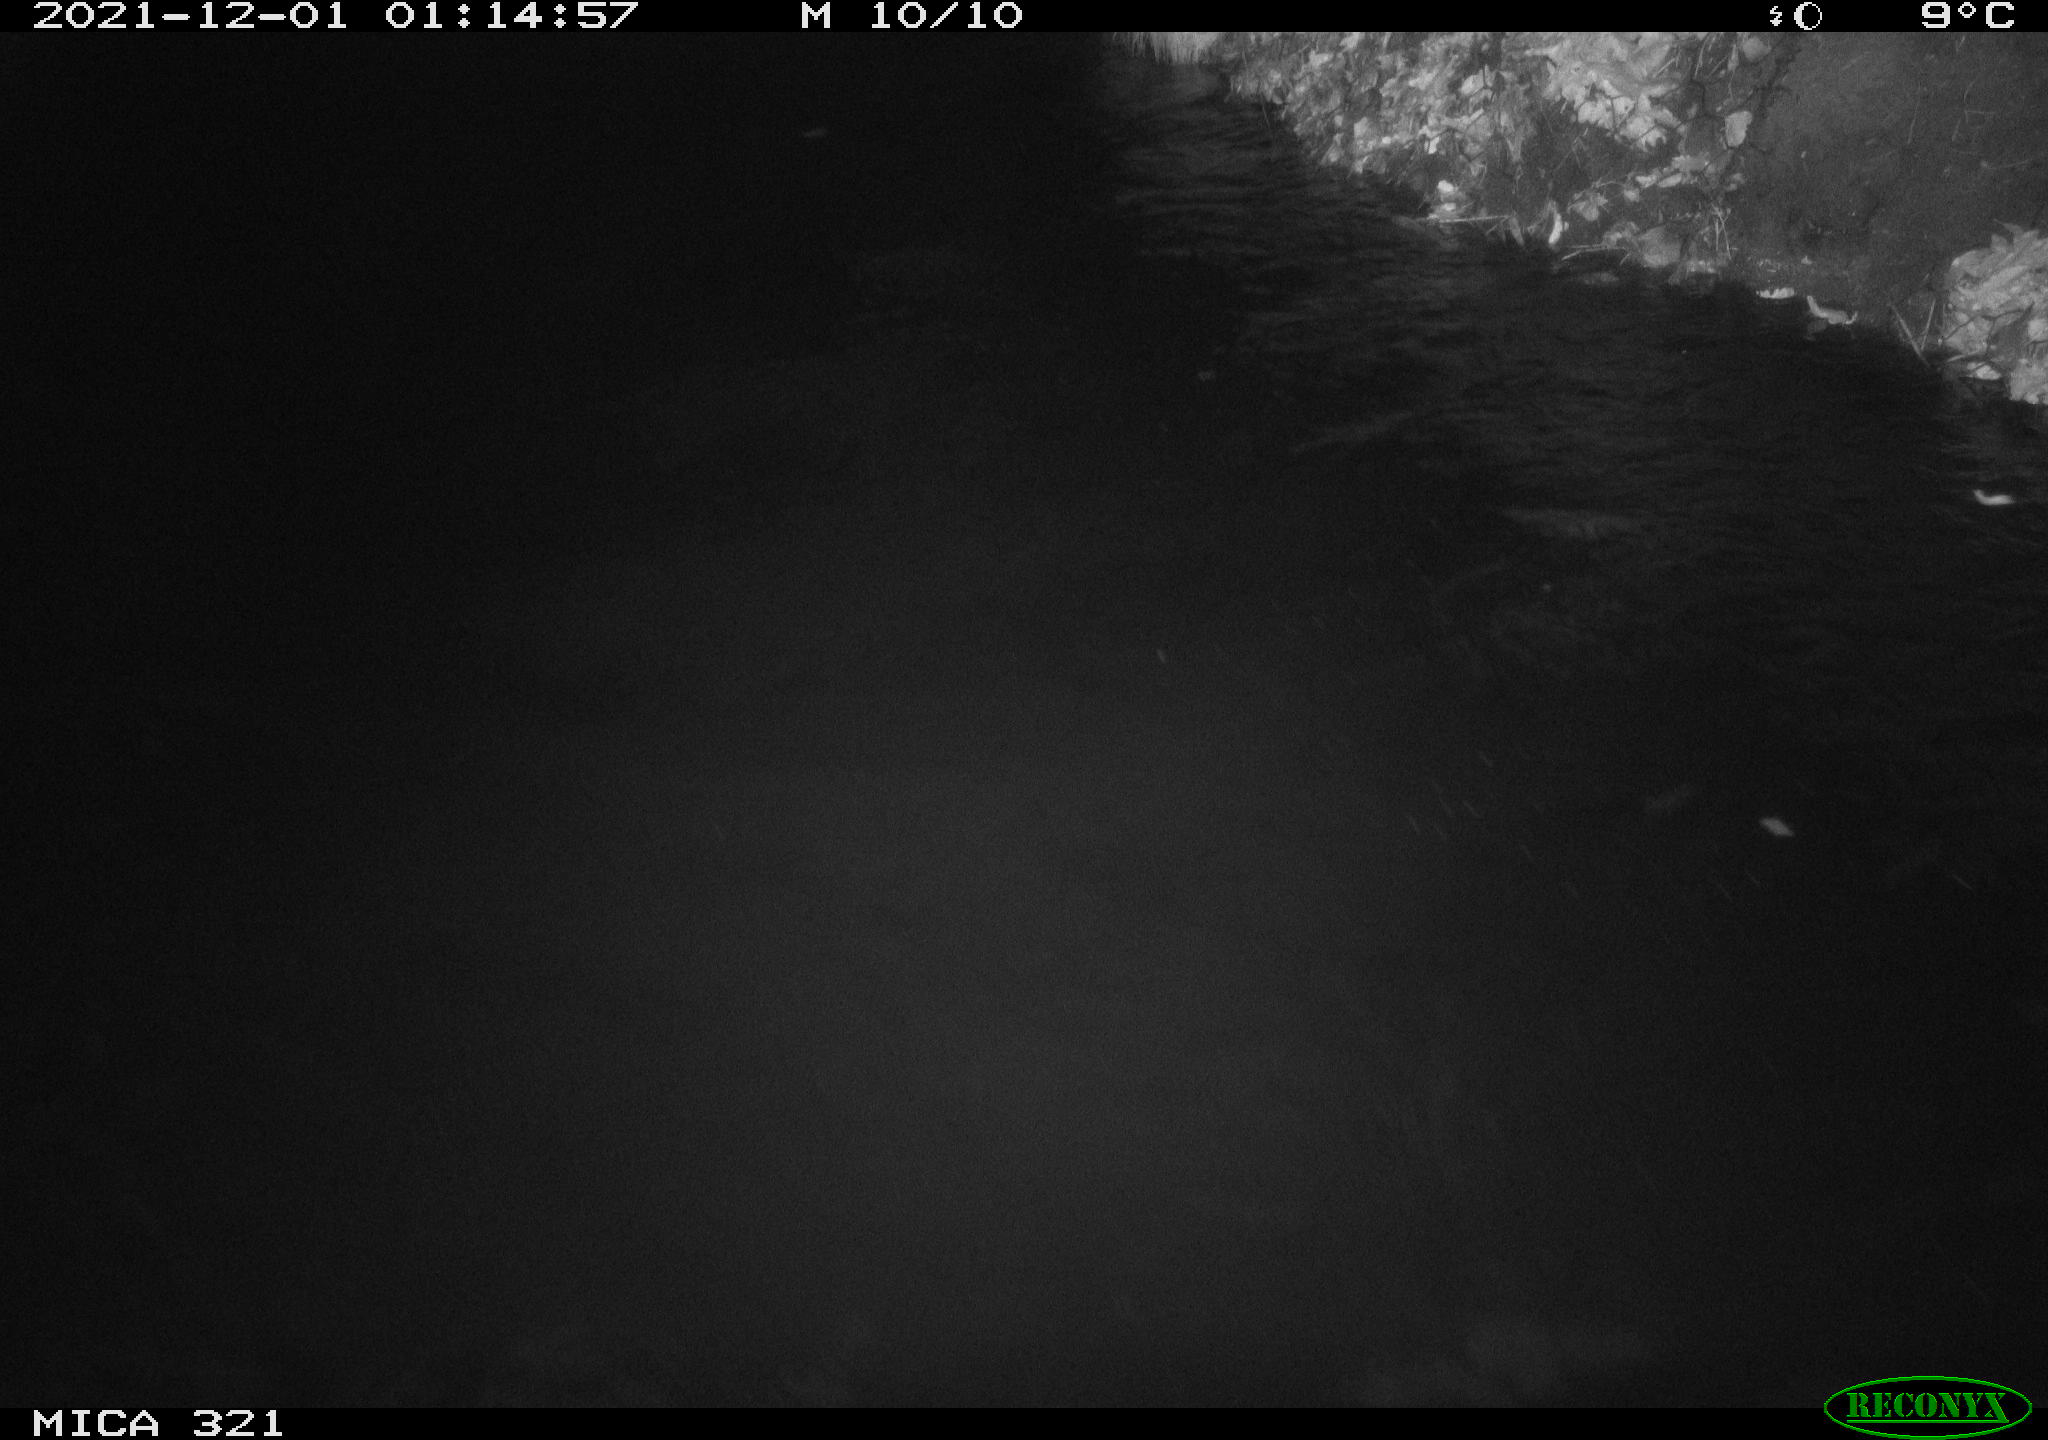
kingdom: Animalia
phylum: Chordata
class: Aves
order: Anseriformes
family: Anatidae
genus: Anas
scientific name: Anas platyrhynchos
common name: Mallard
